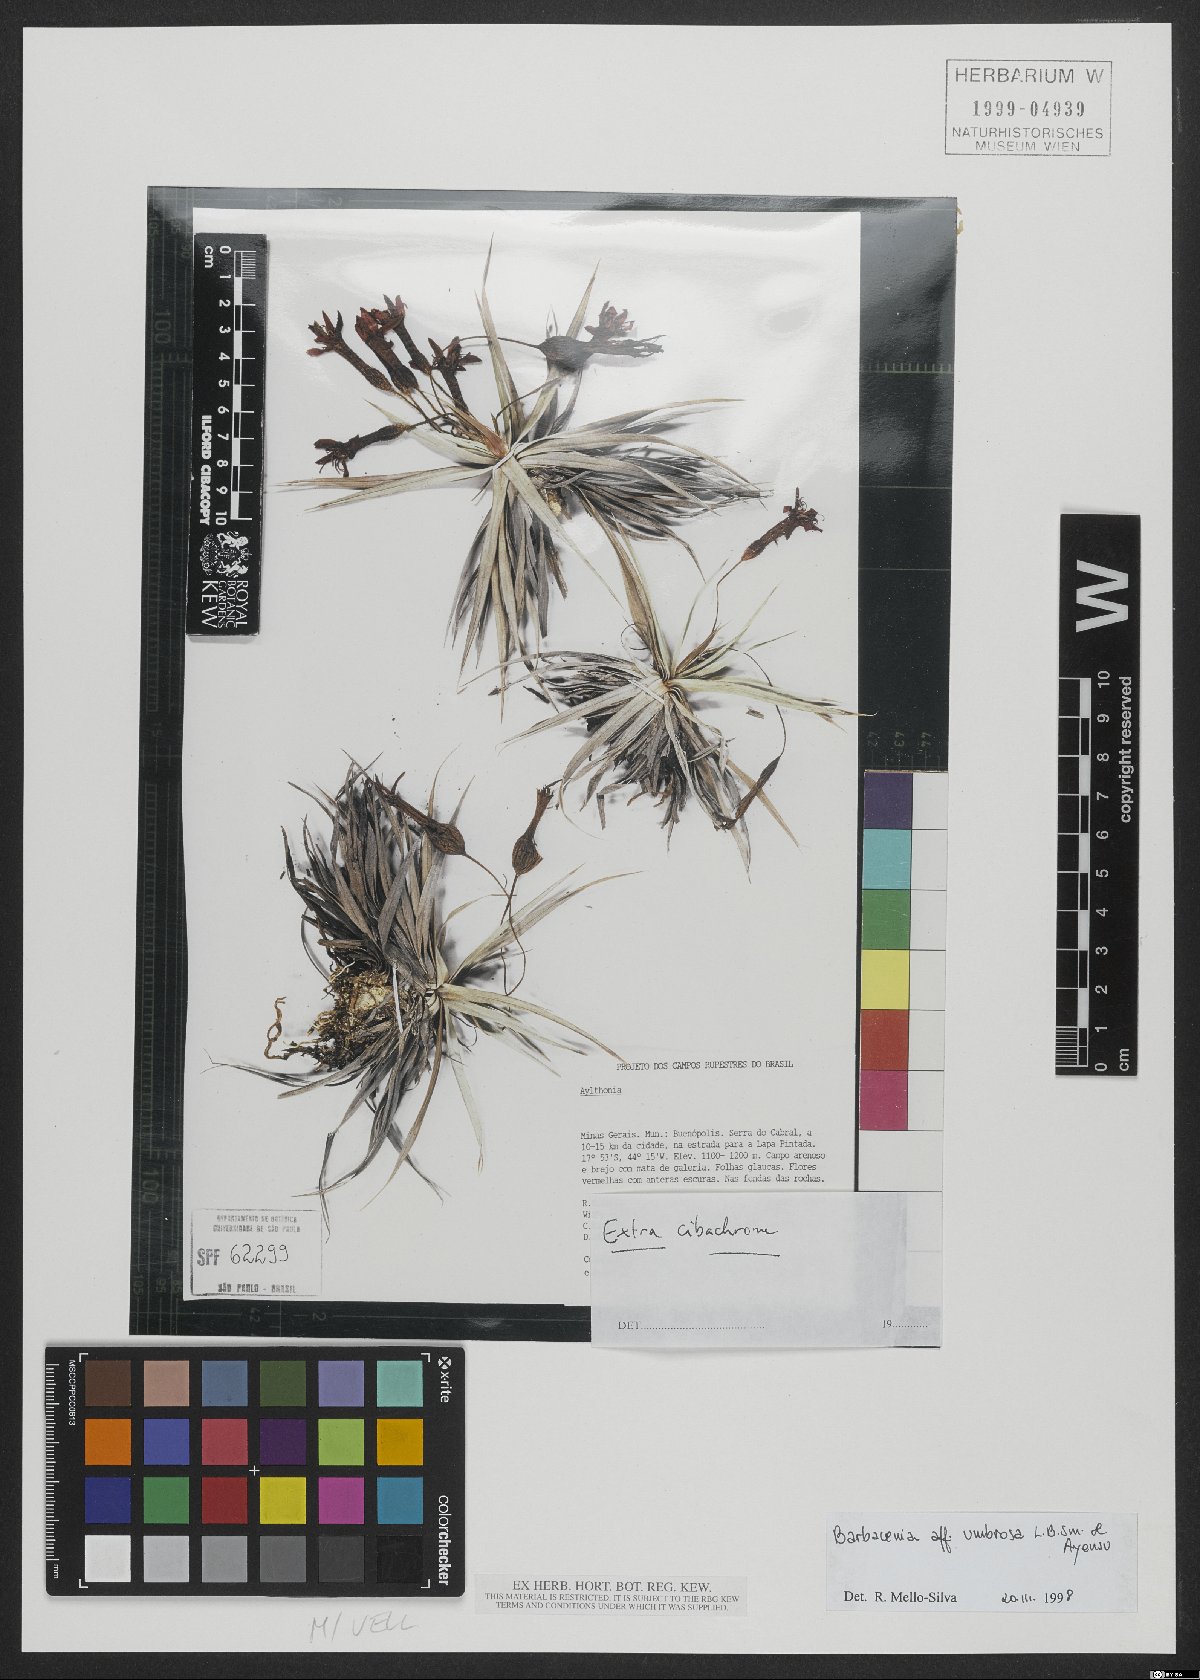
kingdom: Plantae
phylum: Tracheophyta
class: Liliopsida
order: Pandanales
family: Velloziaceae
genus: Barbacenia
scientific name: Barbacenia umbrosa
